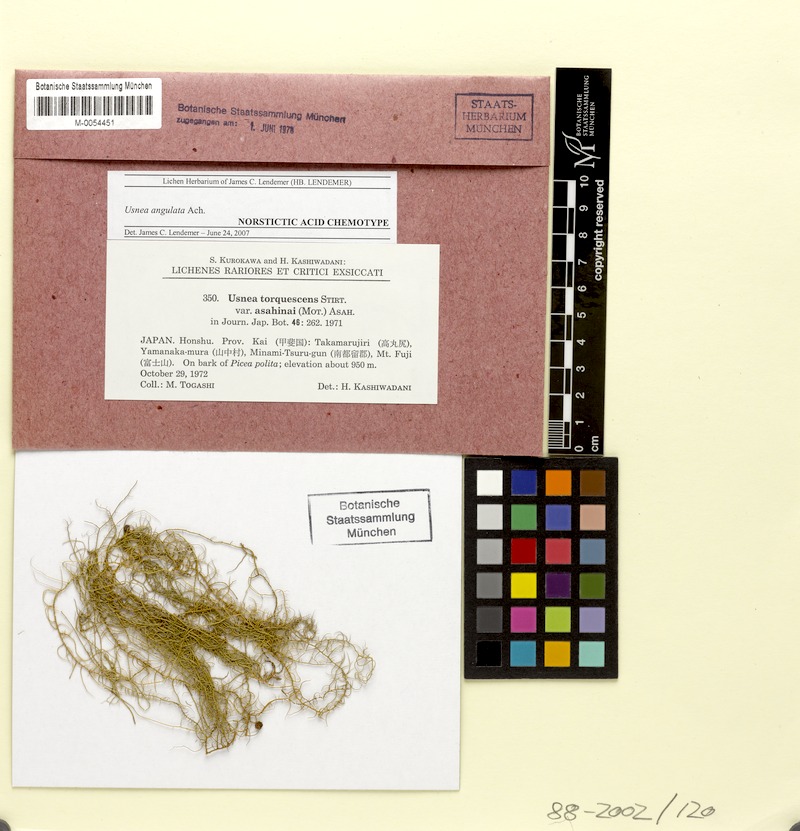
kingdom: Fungi
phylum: Ascomycota
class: Lecanoromycetes
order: Lecanorales
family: Parmeliaceae
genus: Usnea
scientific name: Usnea angulata
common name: Old-man’s beard lichen
